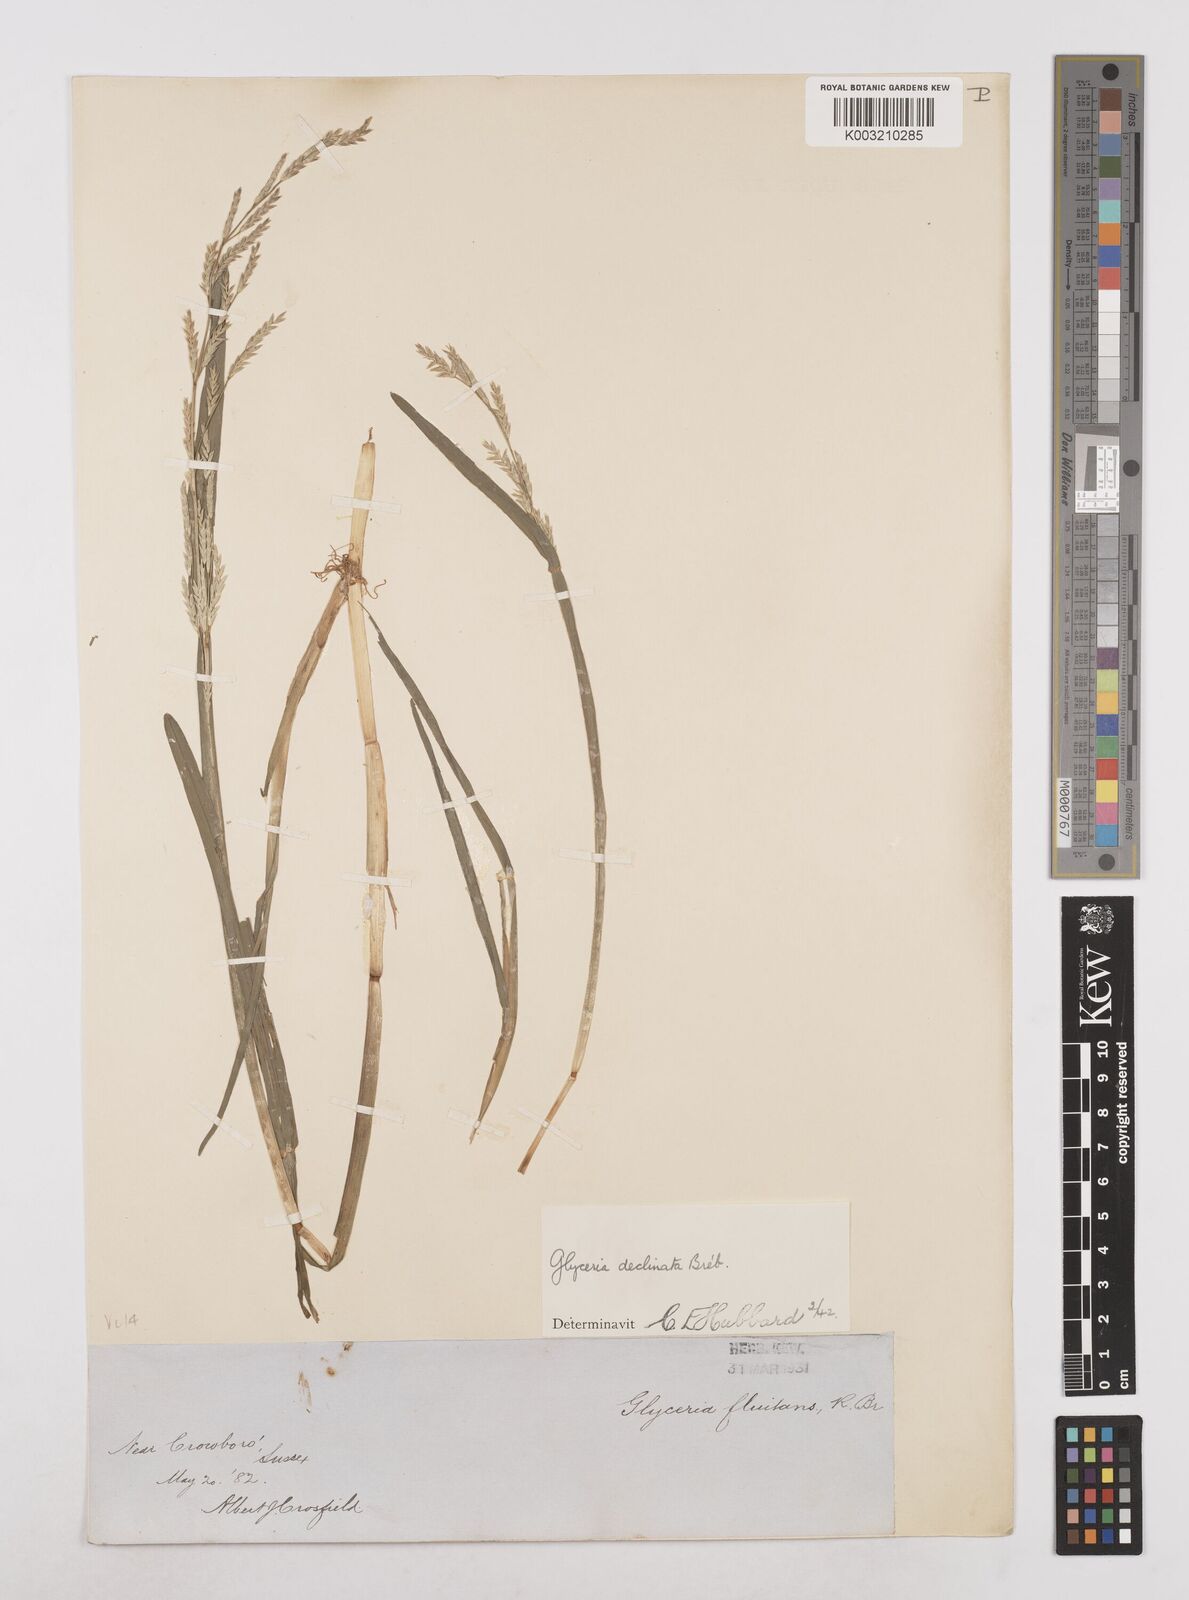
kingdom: Plantae
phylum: Tracheophyta
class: Liliopsida
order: Poales
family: Poaceae
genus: Glyceria
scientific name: Glyceria declinata
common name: Small sweet-grass
